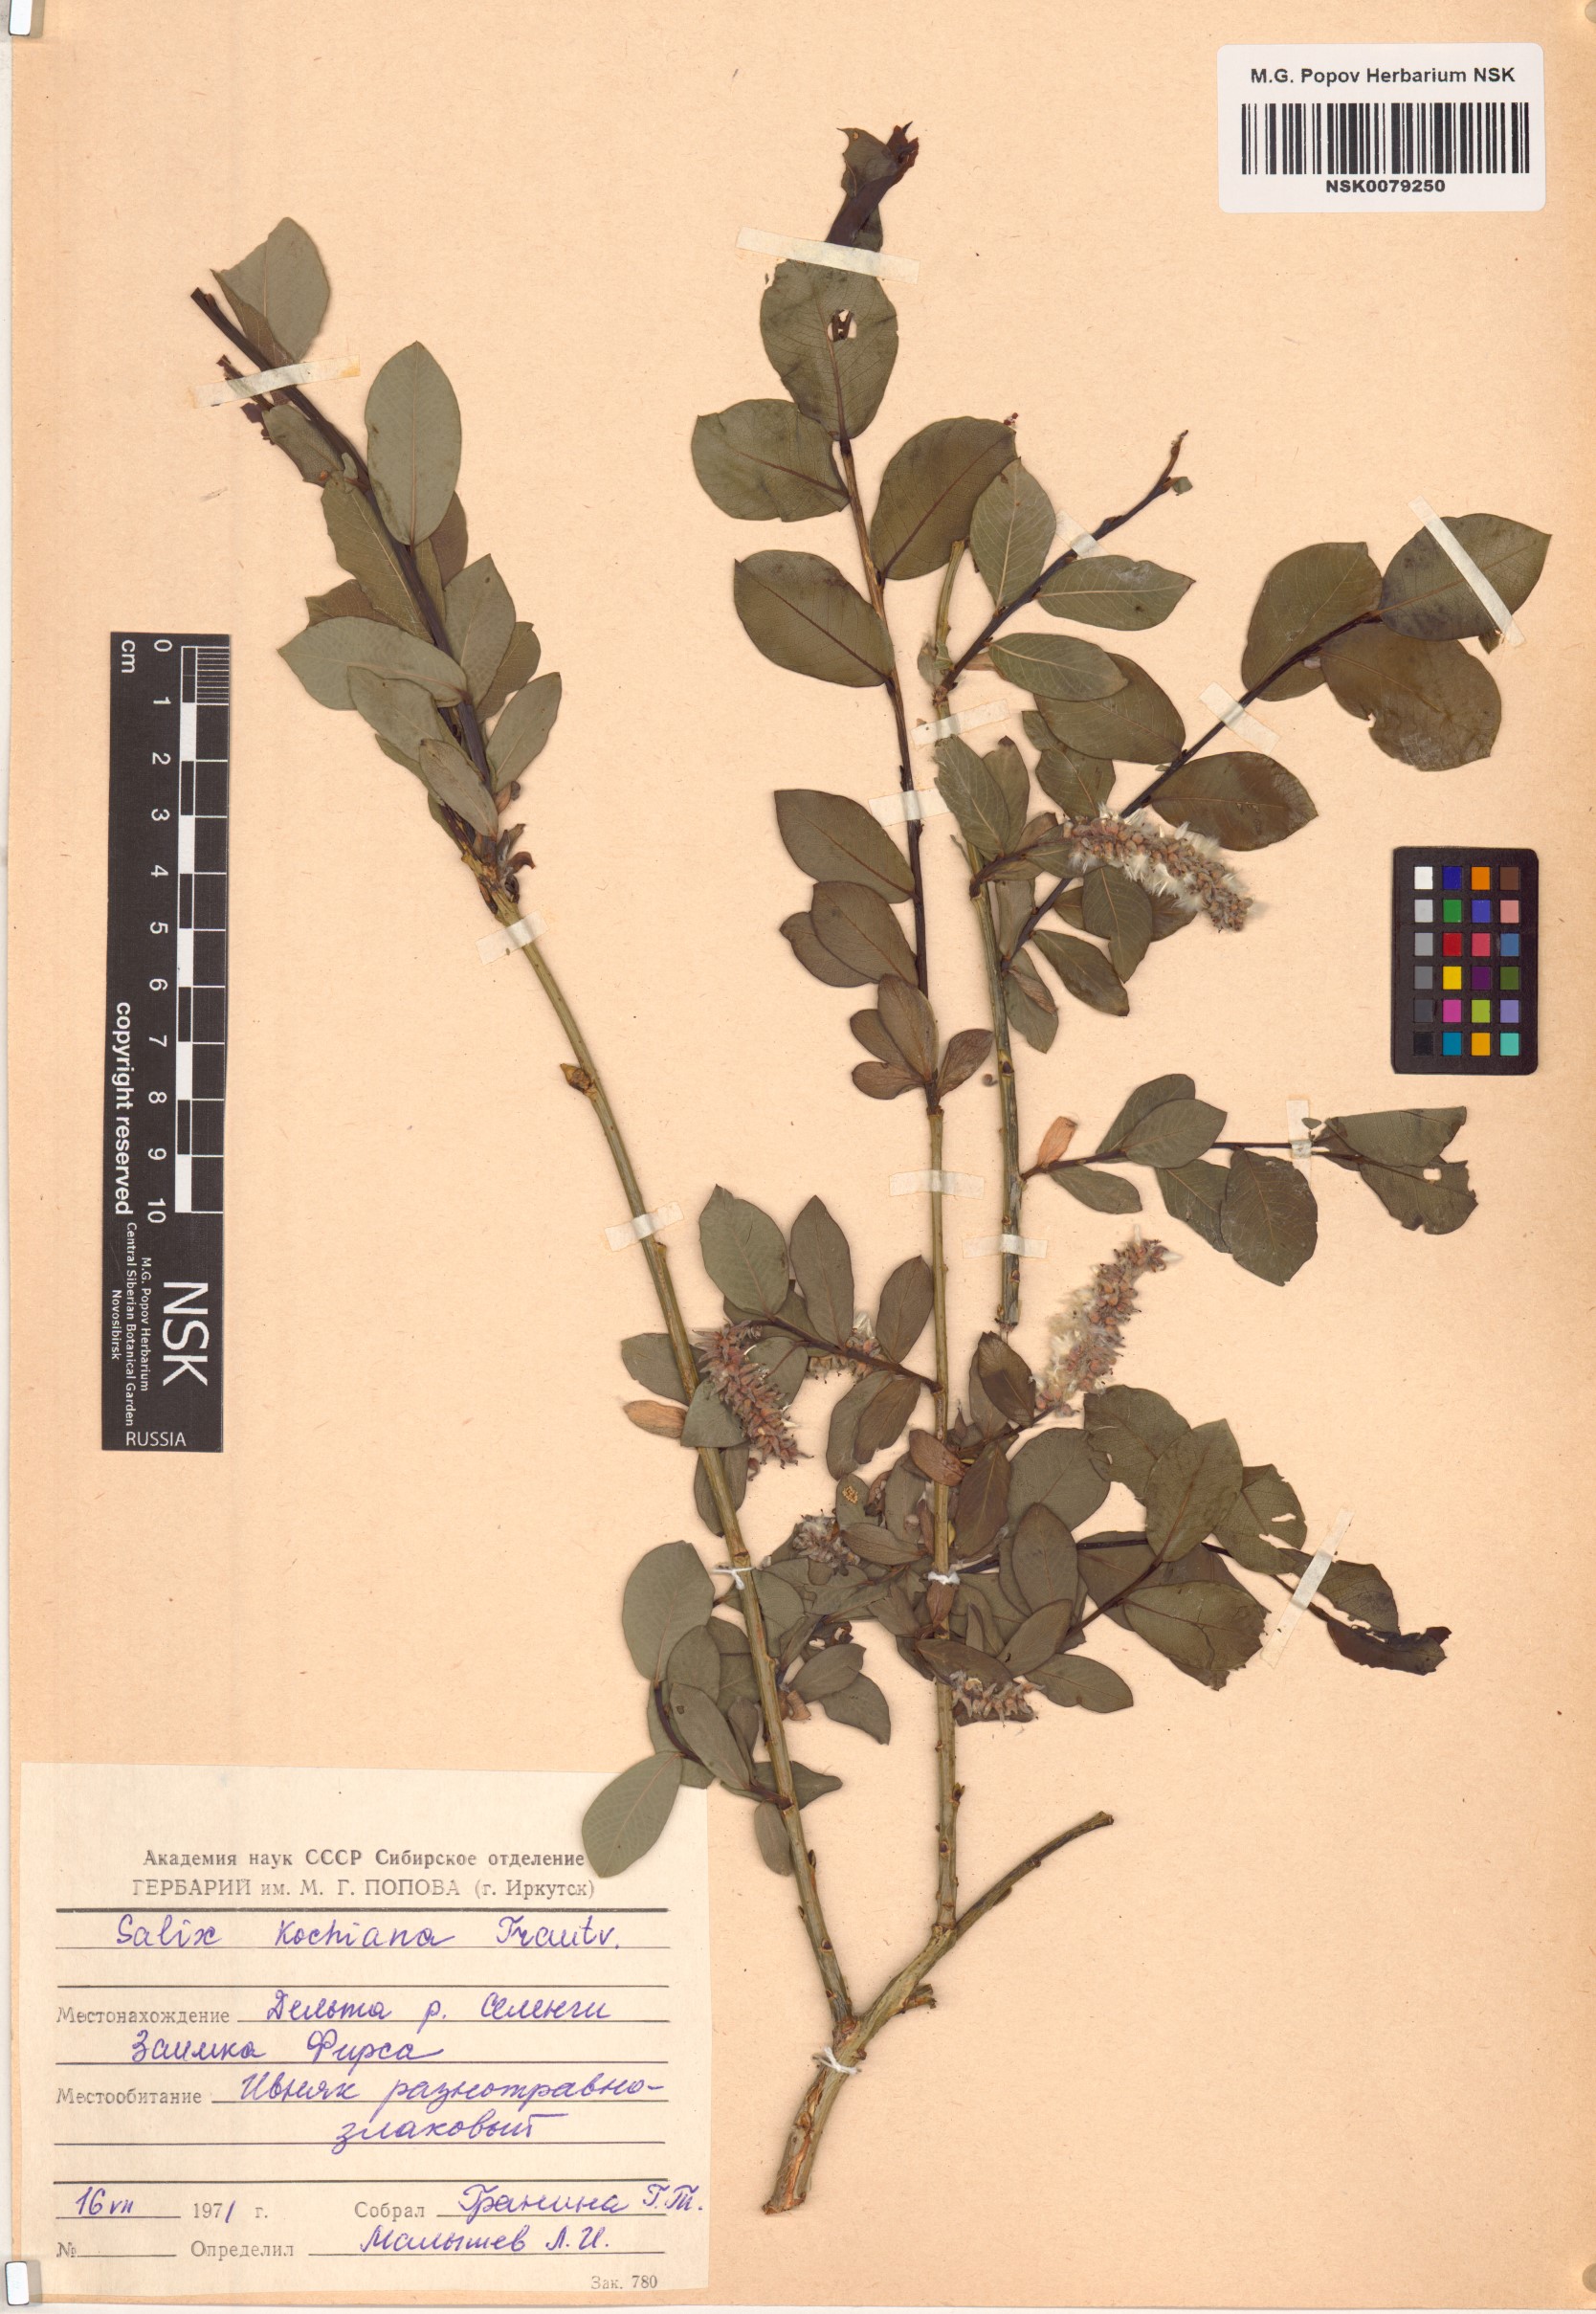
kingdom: Plantae
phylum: Tracheophyta
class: Magnoliopsida
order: Malpighiales
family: Salicaceae
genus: Salix
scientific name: Salix kochiana
